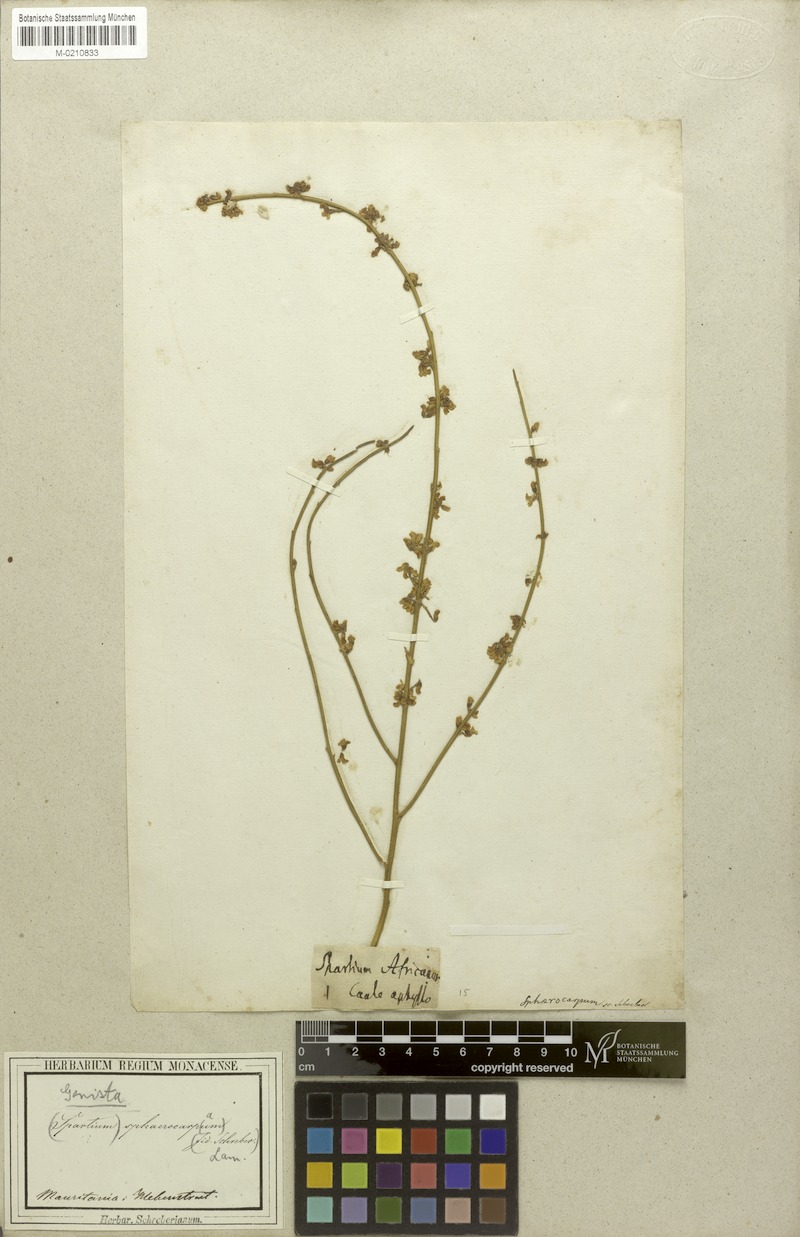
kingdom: Plantae
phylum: Tracheophyta
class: Magnoliopsida
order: Fabales
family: Fabaceae
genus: Retama
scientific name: Retama sphaerocarpa
